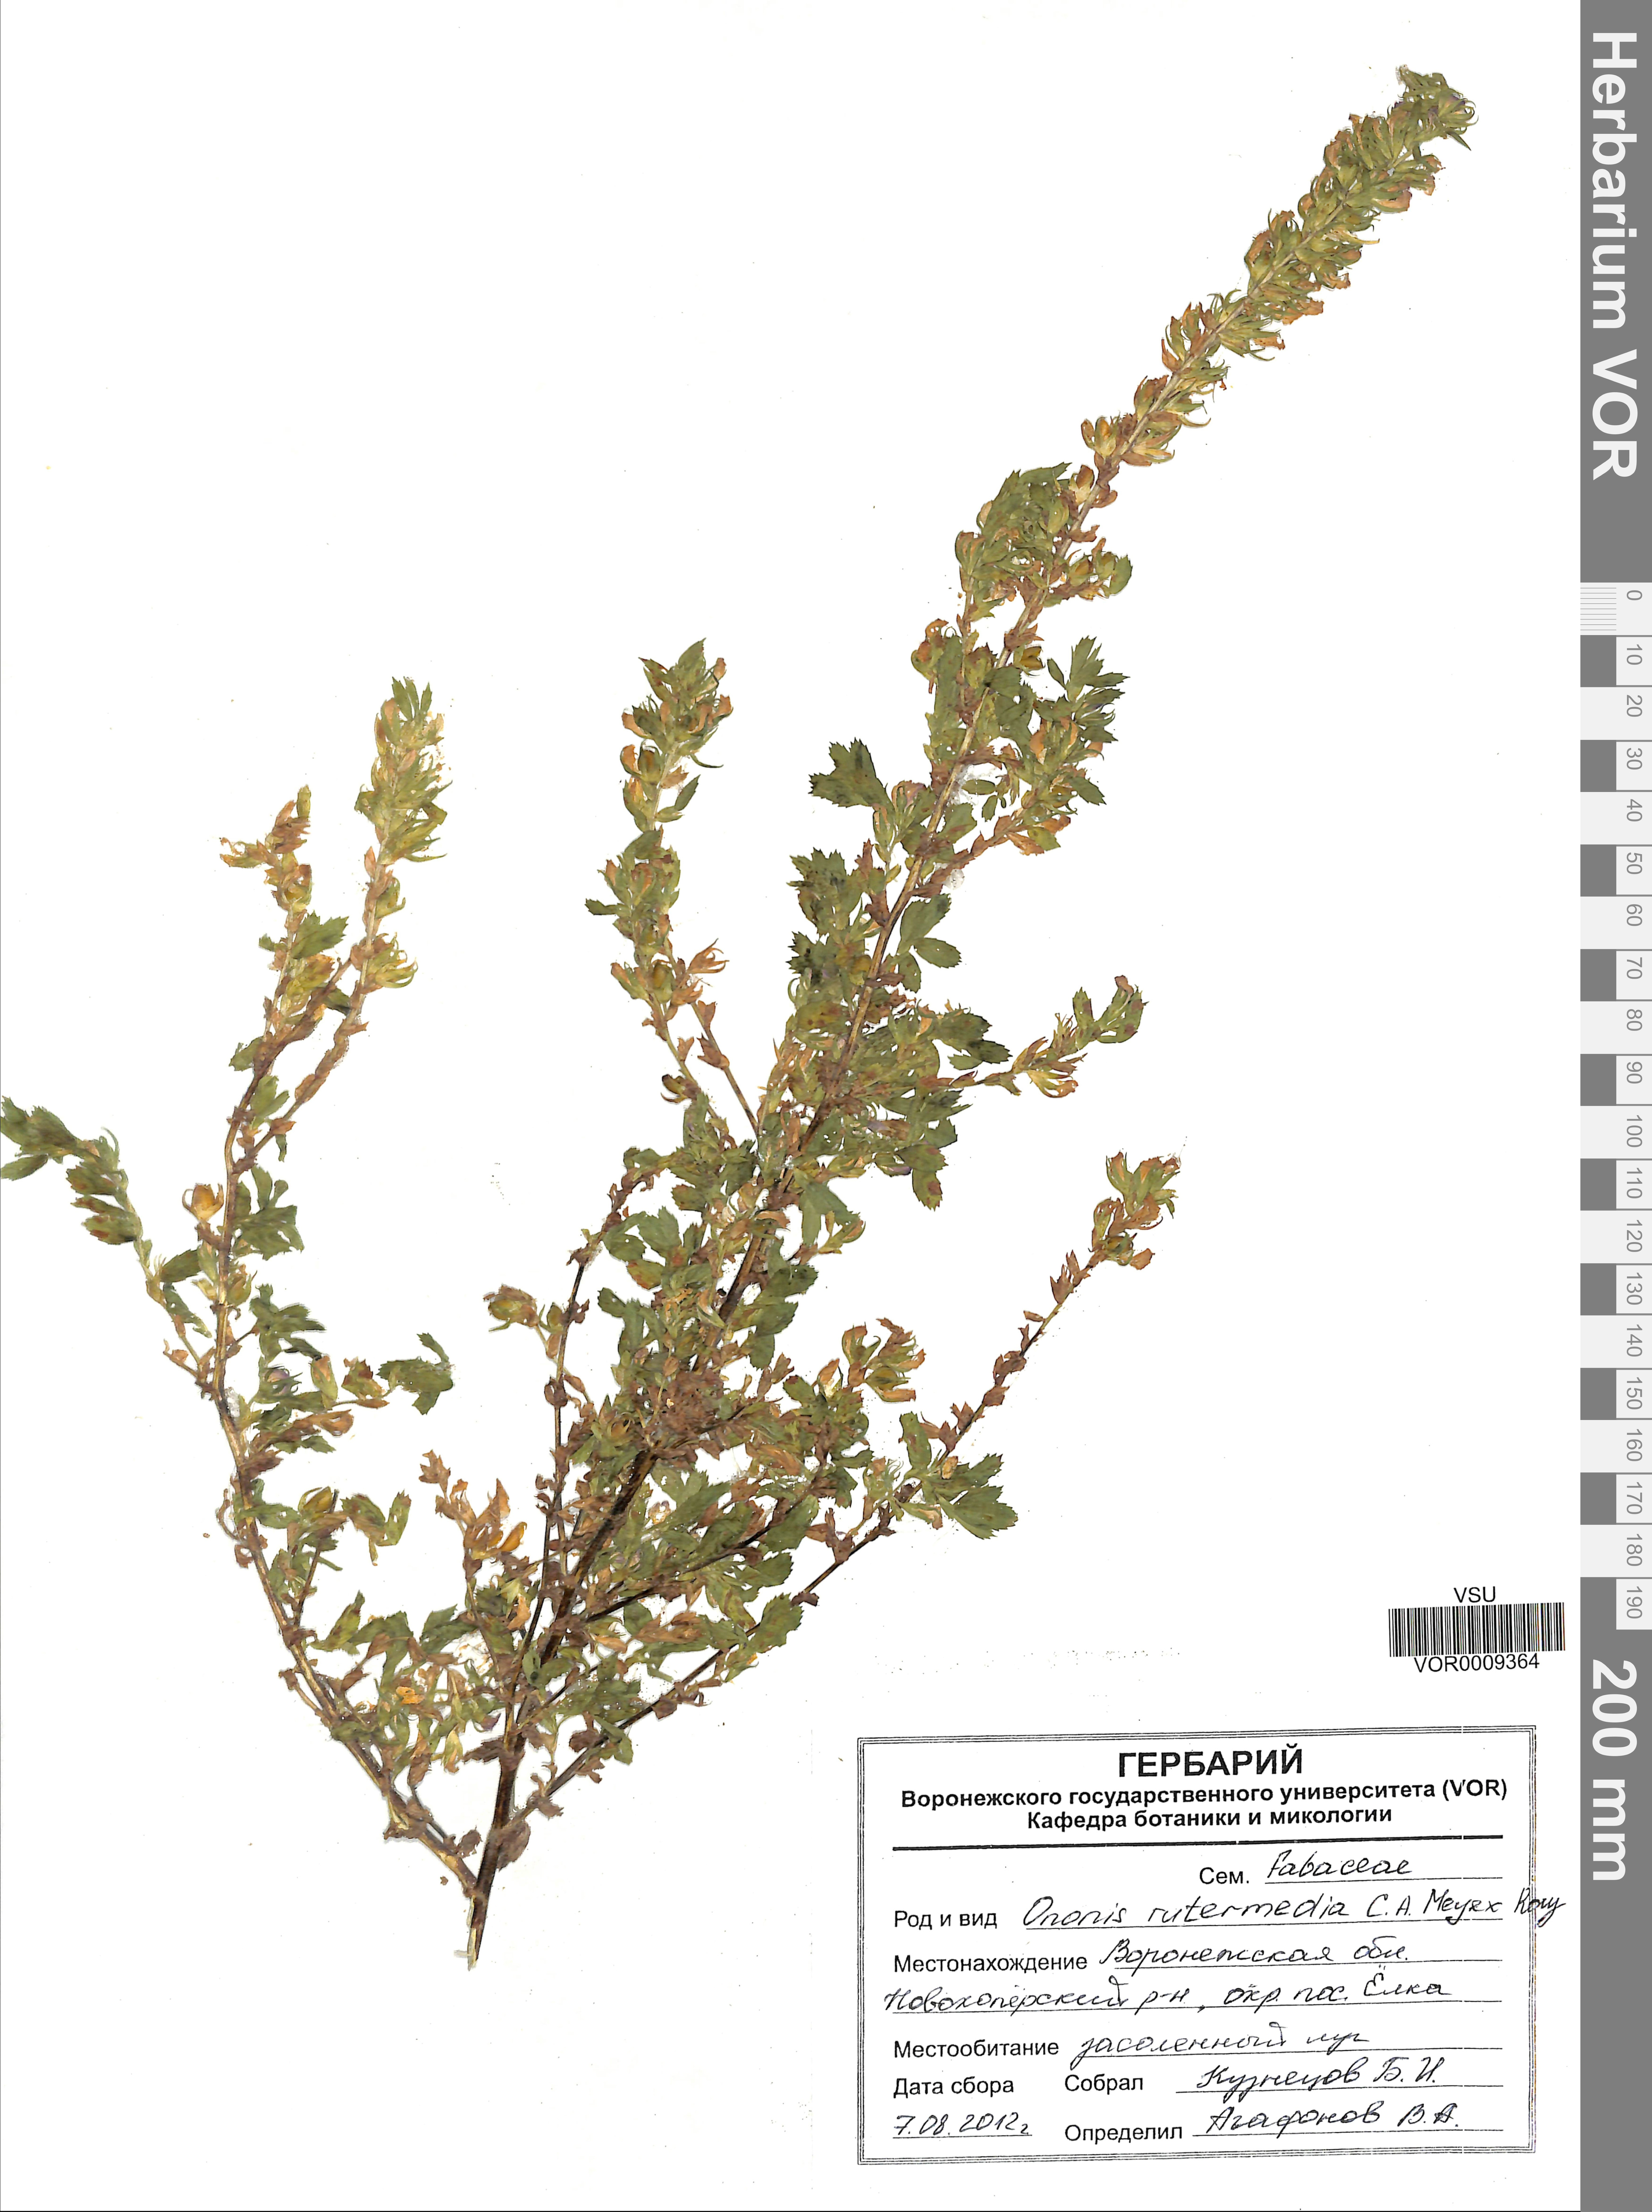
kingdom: Plantae
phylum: Tracheophyta
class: Magnoliopsida
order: Fabales
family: Fabaceae
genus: Ononis
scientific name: Ononis intermedia
